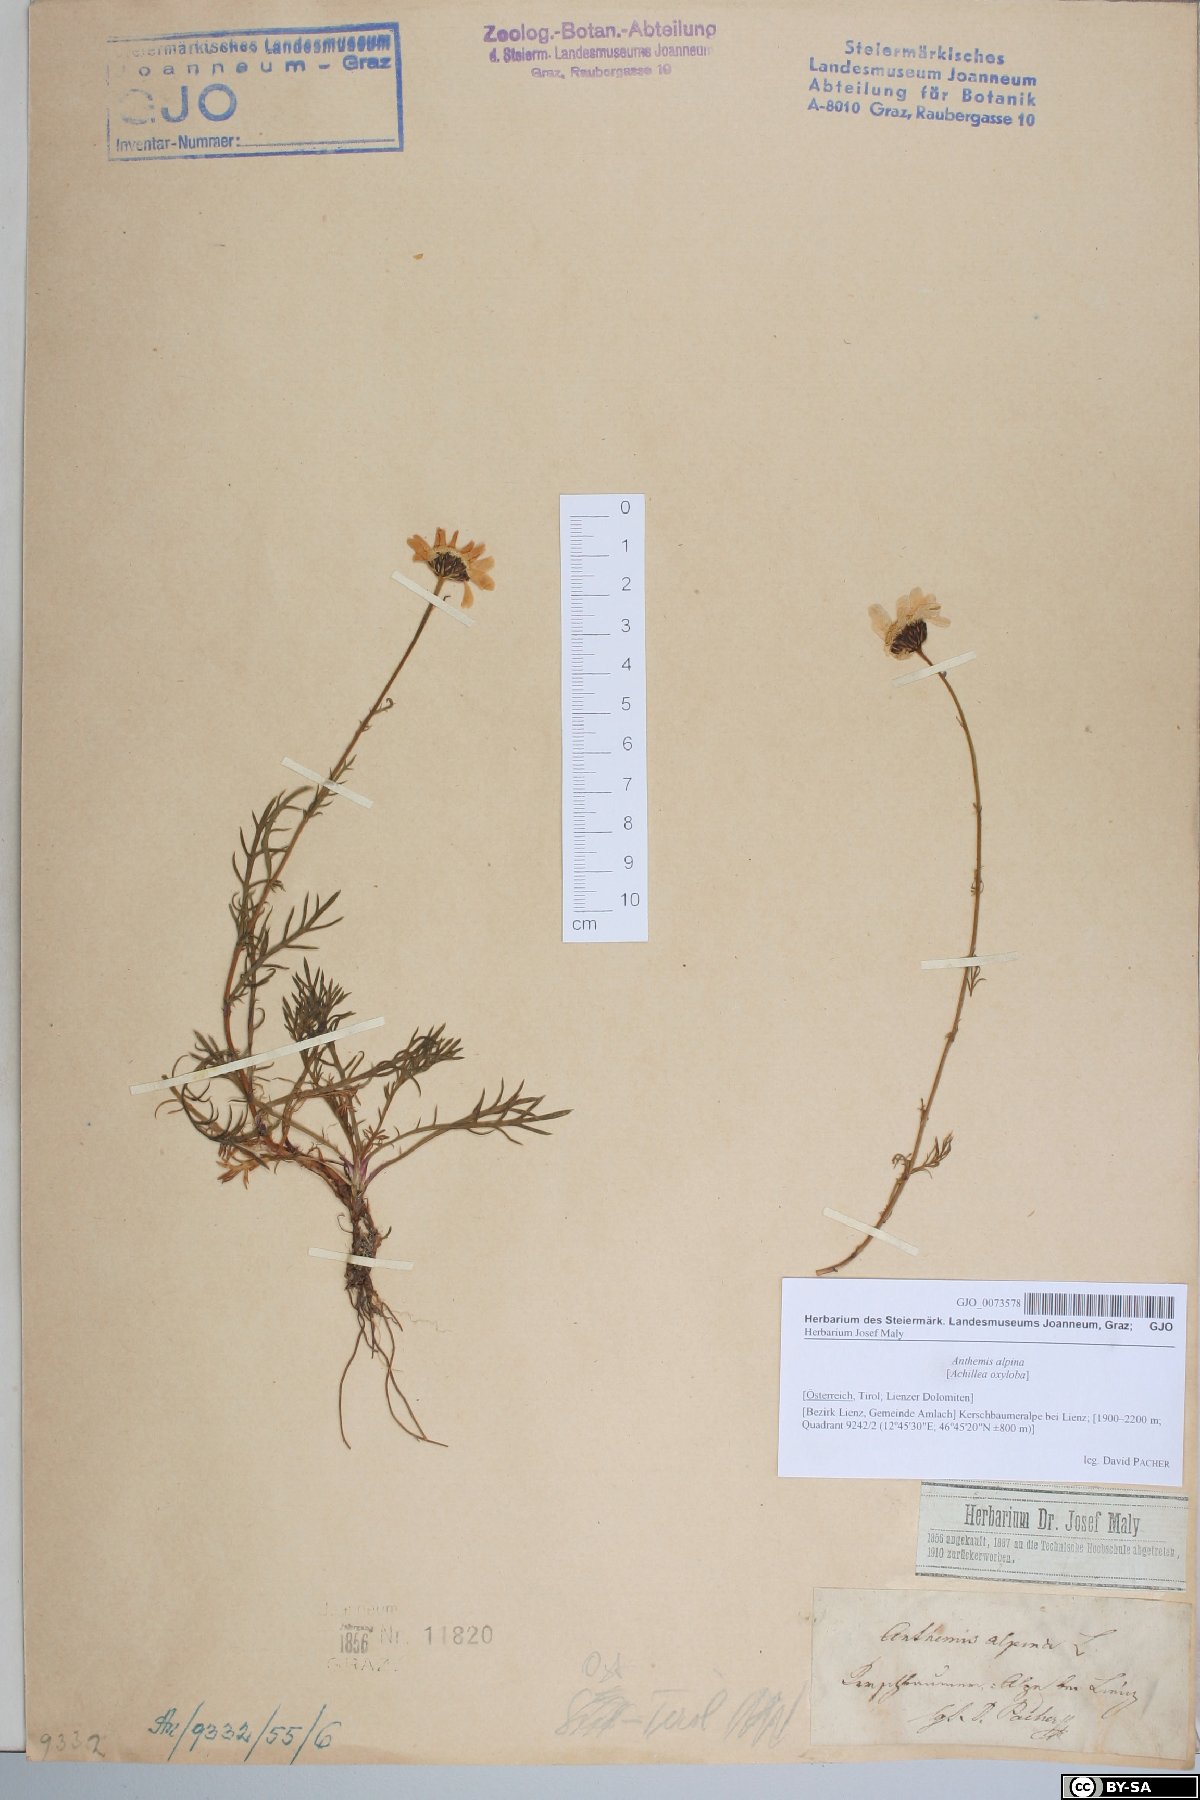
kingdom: Plantae
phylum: Tracheophyta
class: Magnoliopsida
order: Asterales
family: Asteraceae
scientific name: Asteraceae
